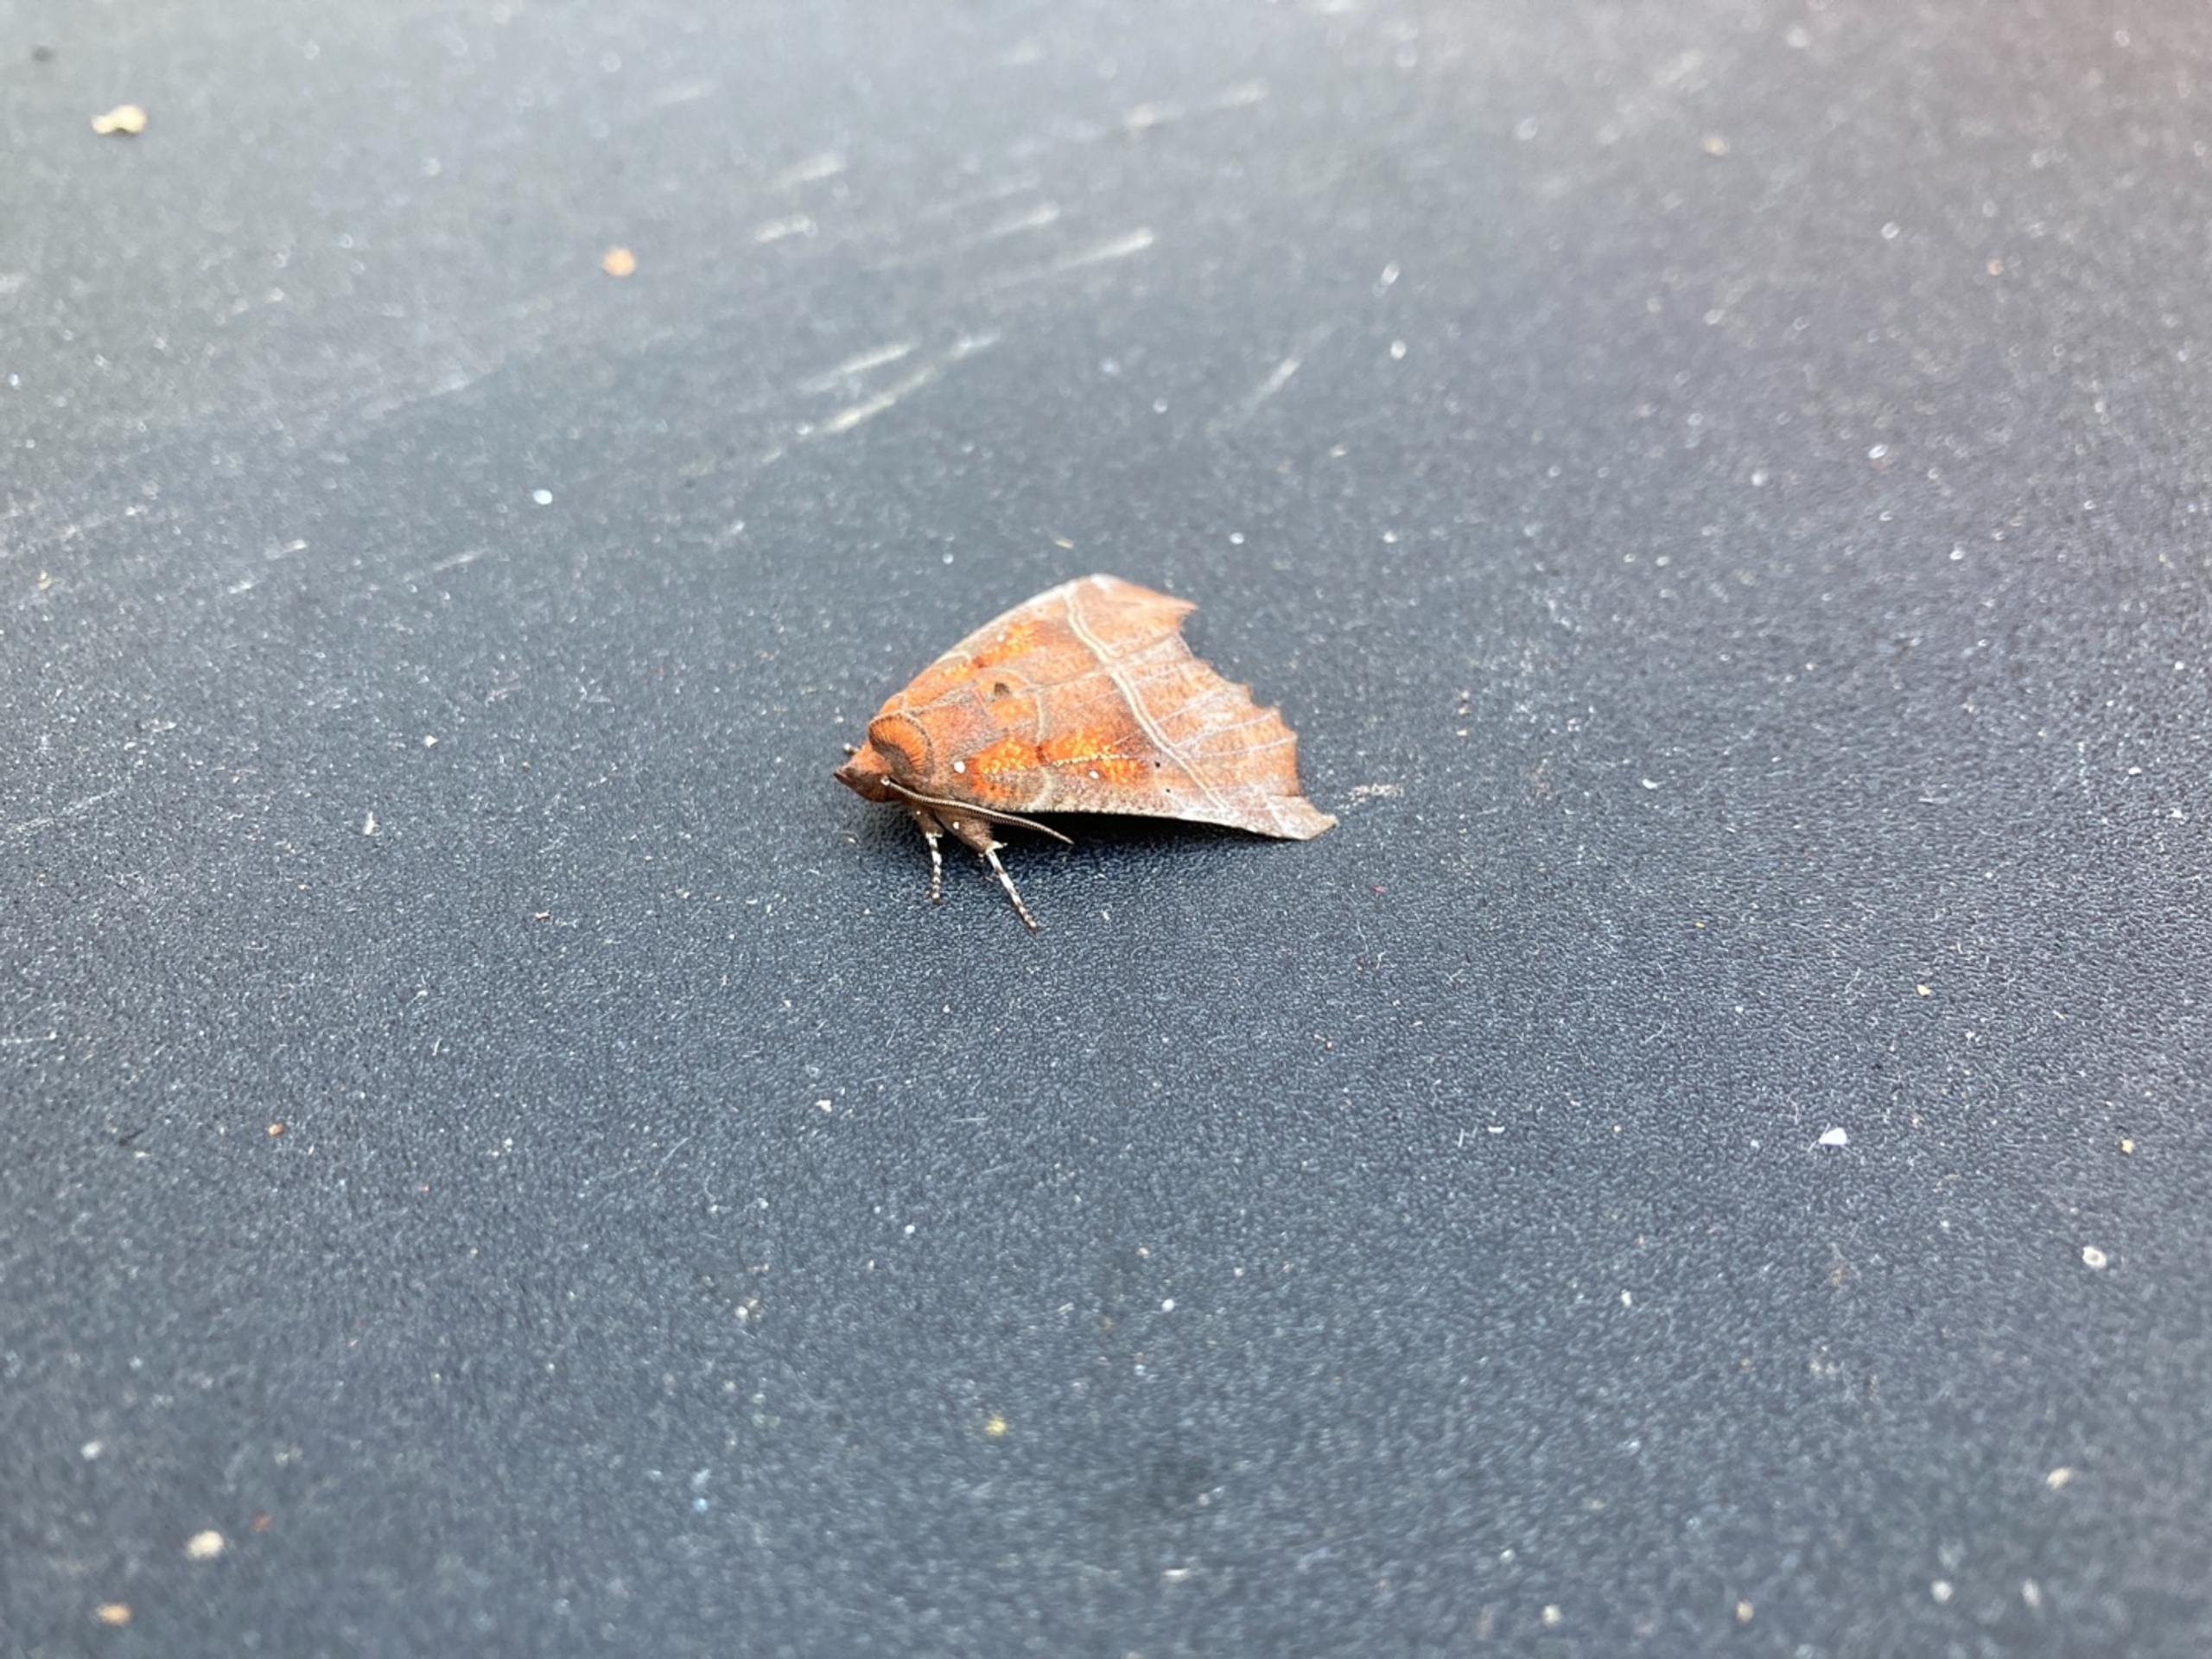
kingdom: Animalia
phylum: Arthropoda
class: Insecta
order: Lepidoptera
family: Erebidae
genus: Scoliopteryx
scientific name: Scoliopteryx libatrix
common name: Husmoderugle
